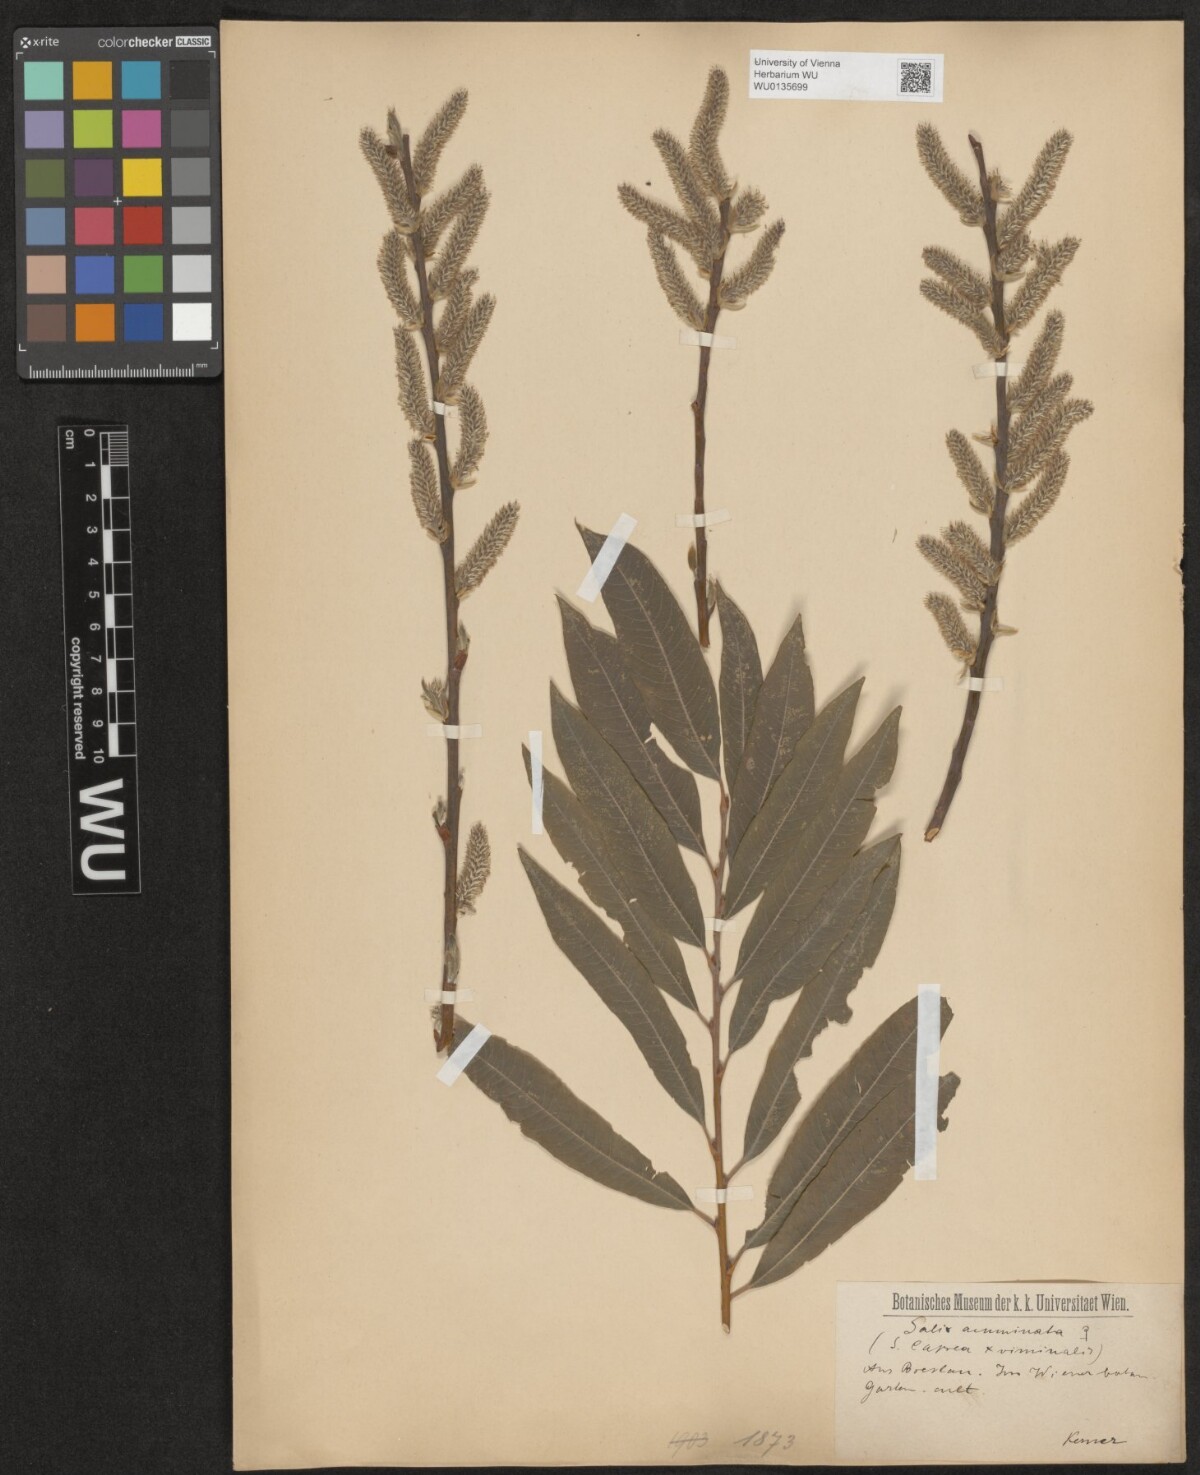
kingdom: Plantae
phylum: Tracheophyta
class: Magnoliopsida
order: Malpighiales
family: Salicaceae
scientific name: Salicaceae
